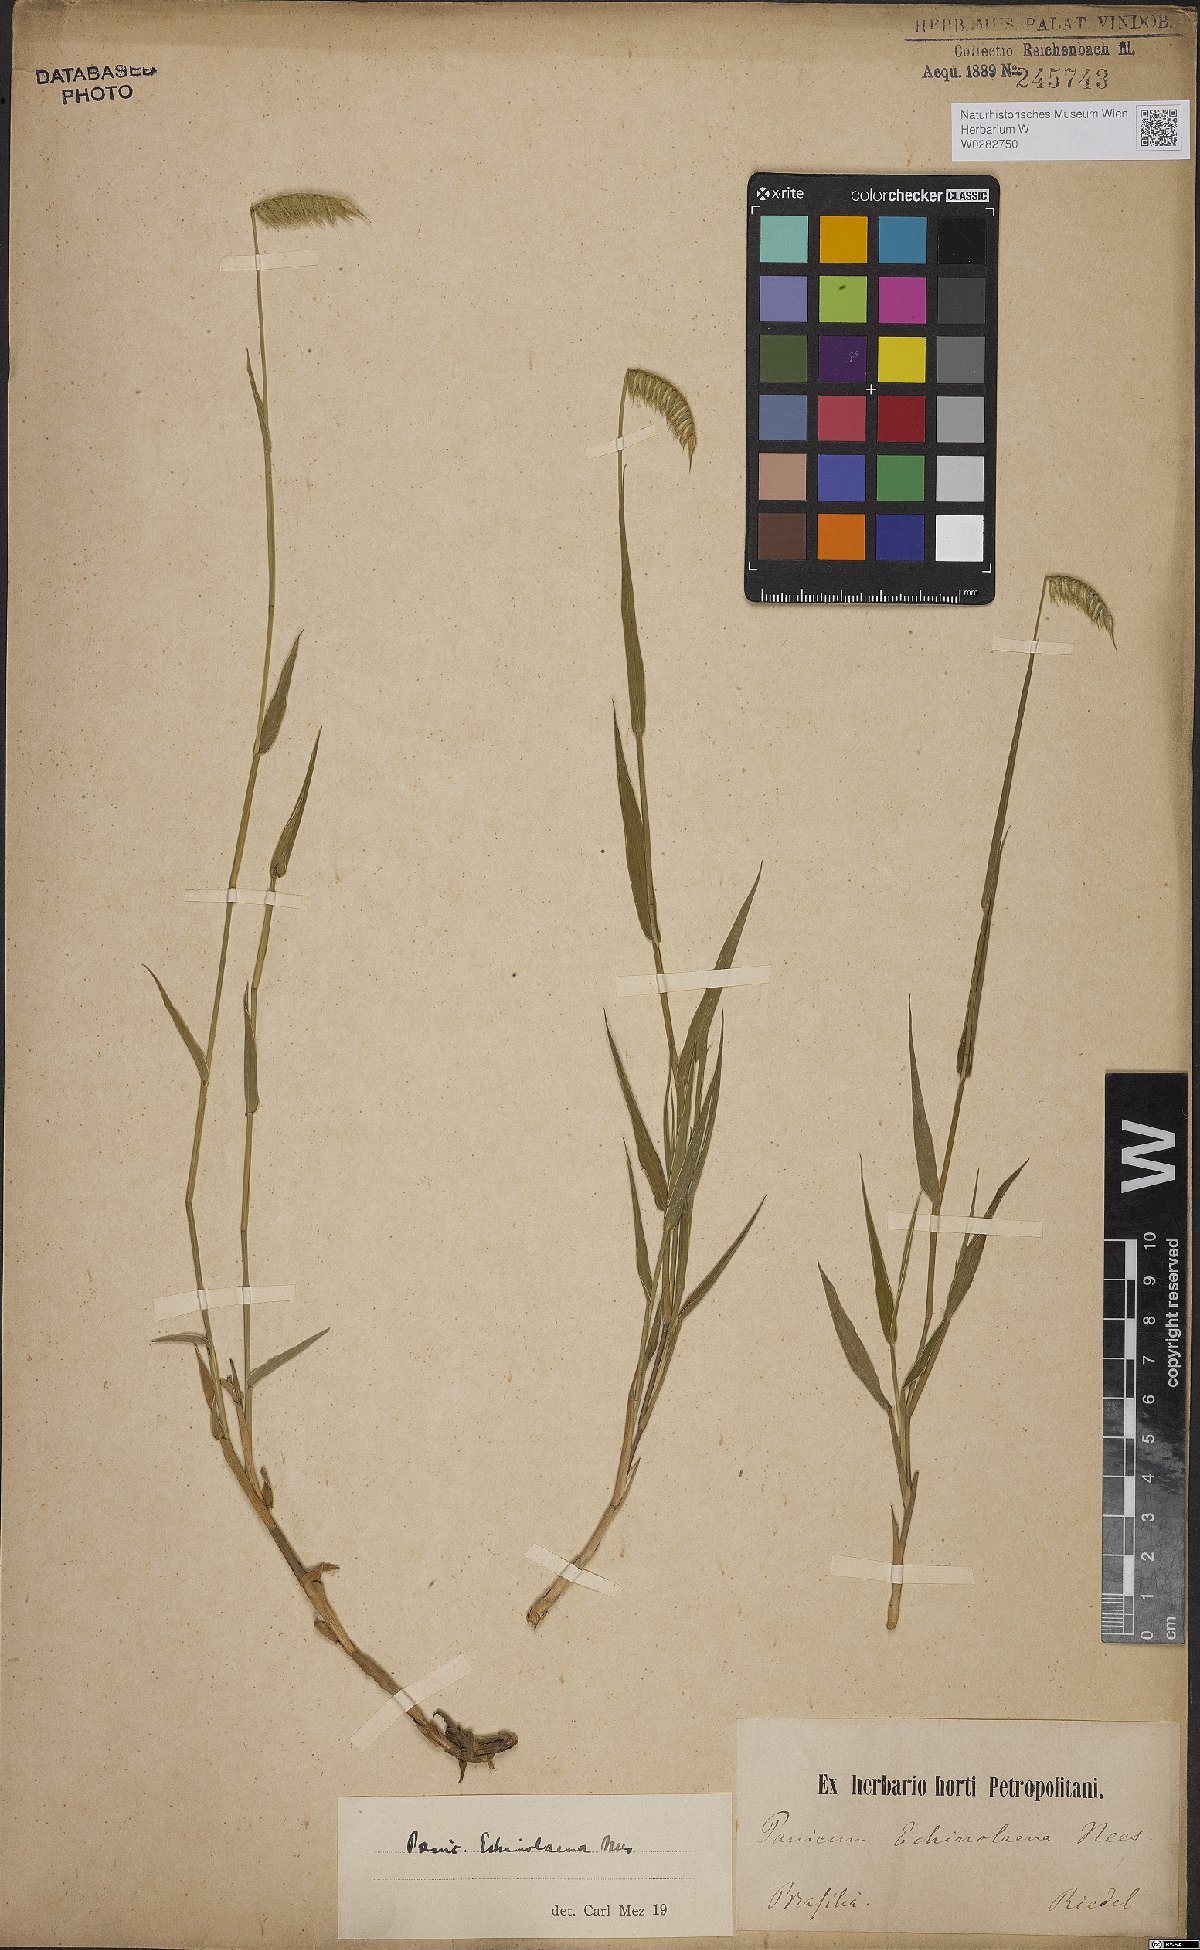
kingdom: Plantae
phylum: Tracheophyta
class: Liliopsida
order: Poales
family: Poaceae
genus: Echinolaena
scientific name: Echinolaena inflexa
